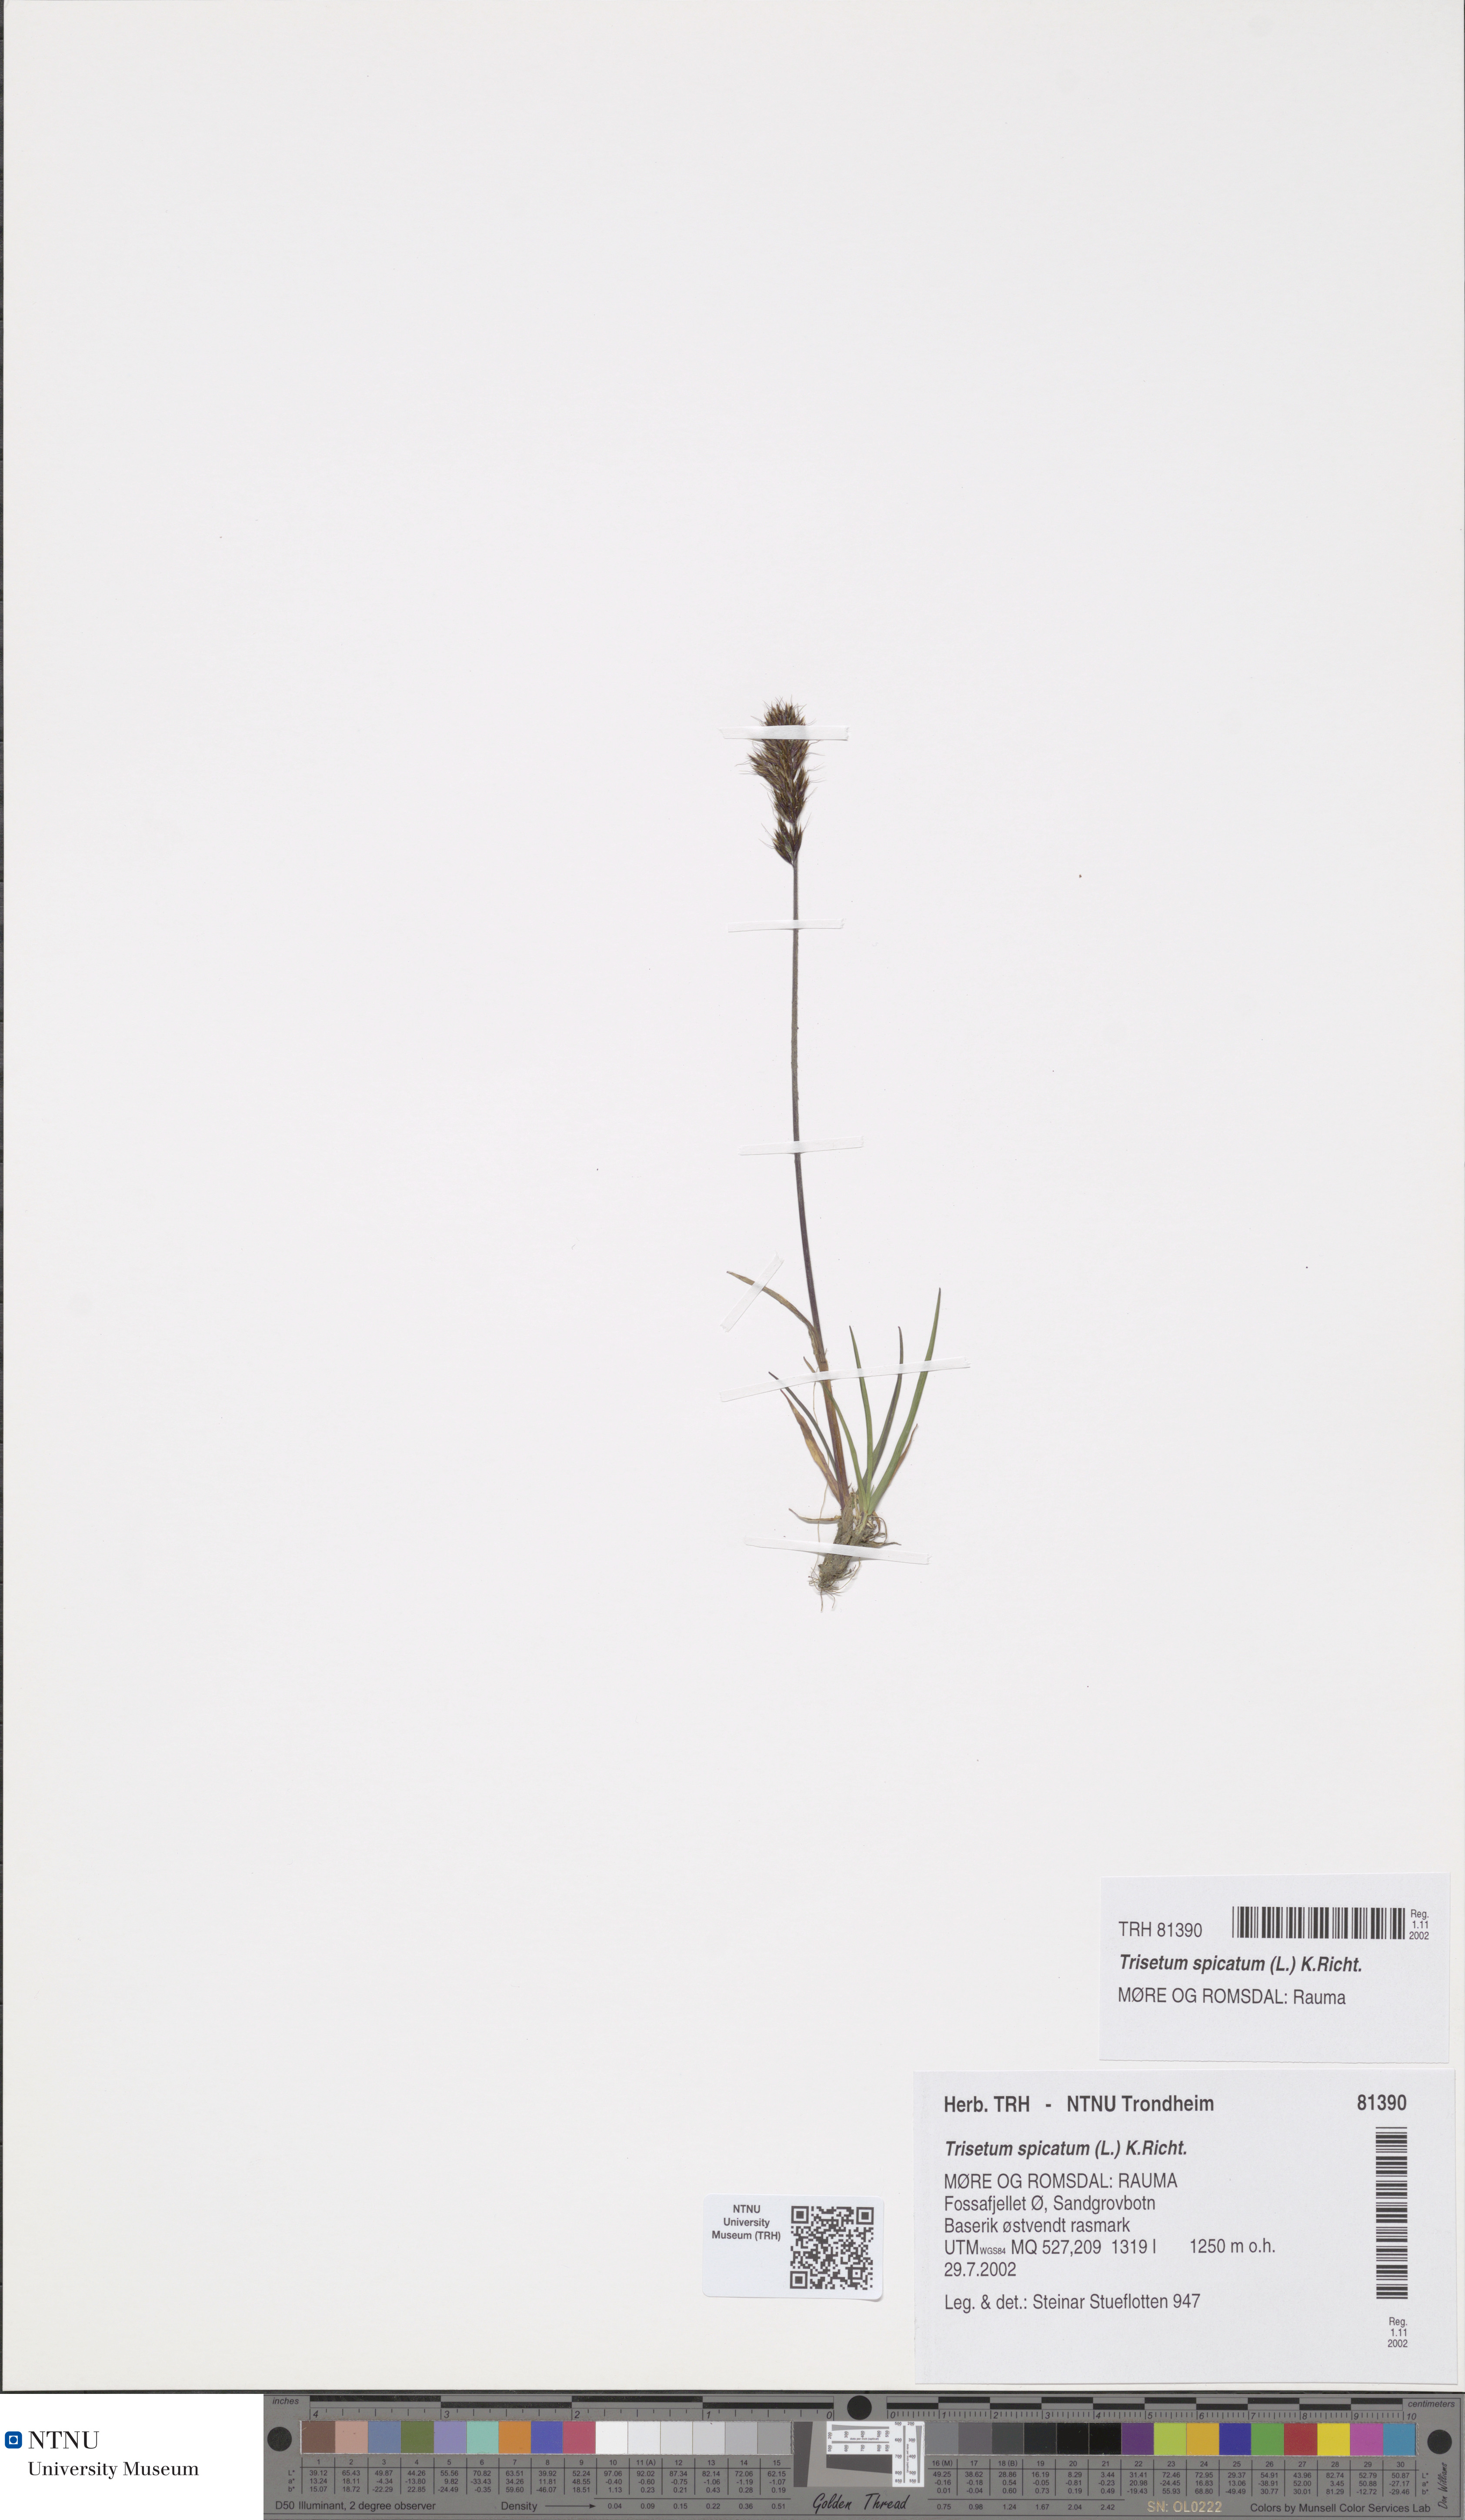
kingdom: Plantae
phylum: Tracheophyta
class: Liliopsida
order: Poales
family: Poaceae
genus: Koeleria
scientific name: Koeleria spicata
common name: Mountain trisetum
